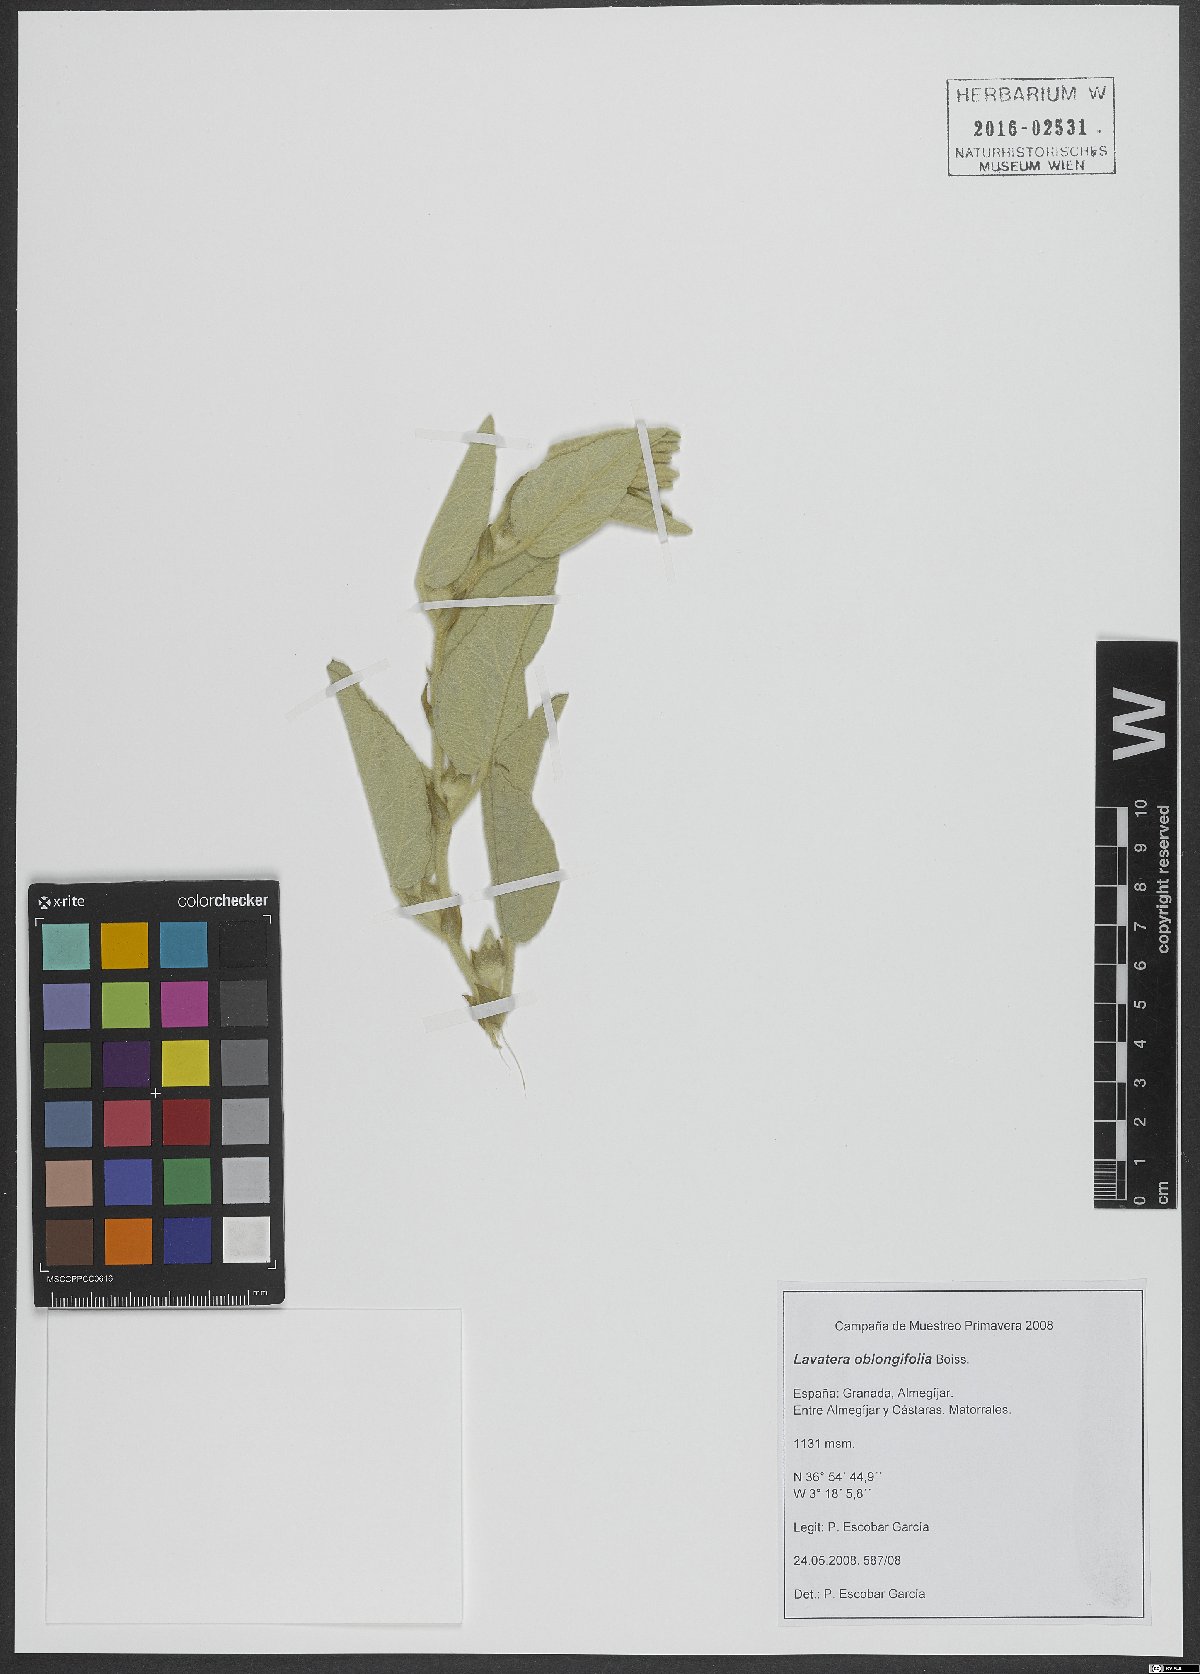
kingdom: Plantae
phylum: Tracheophyta
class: Magnoliopsida
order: Malvales
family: Malvaceae
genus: Malva
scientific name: Malva oblongifolia
